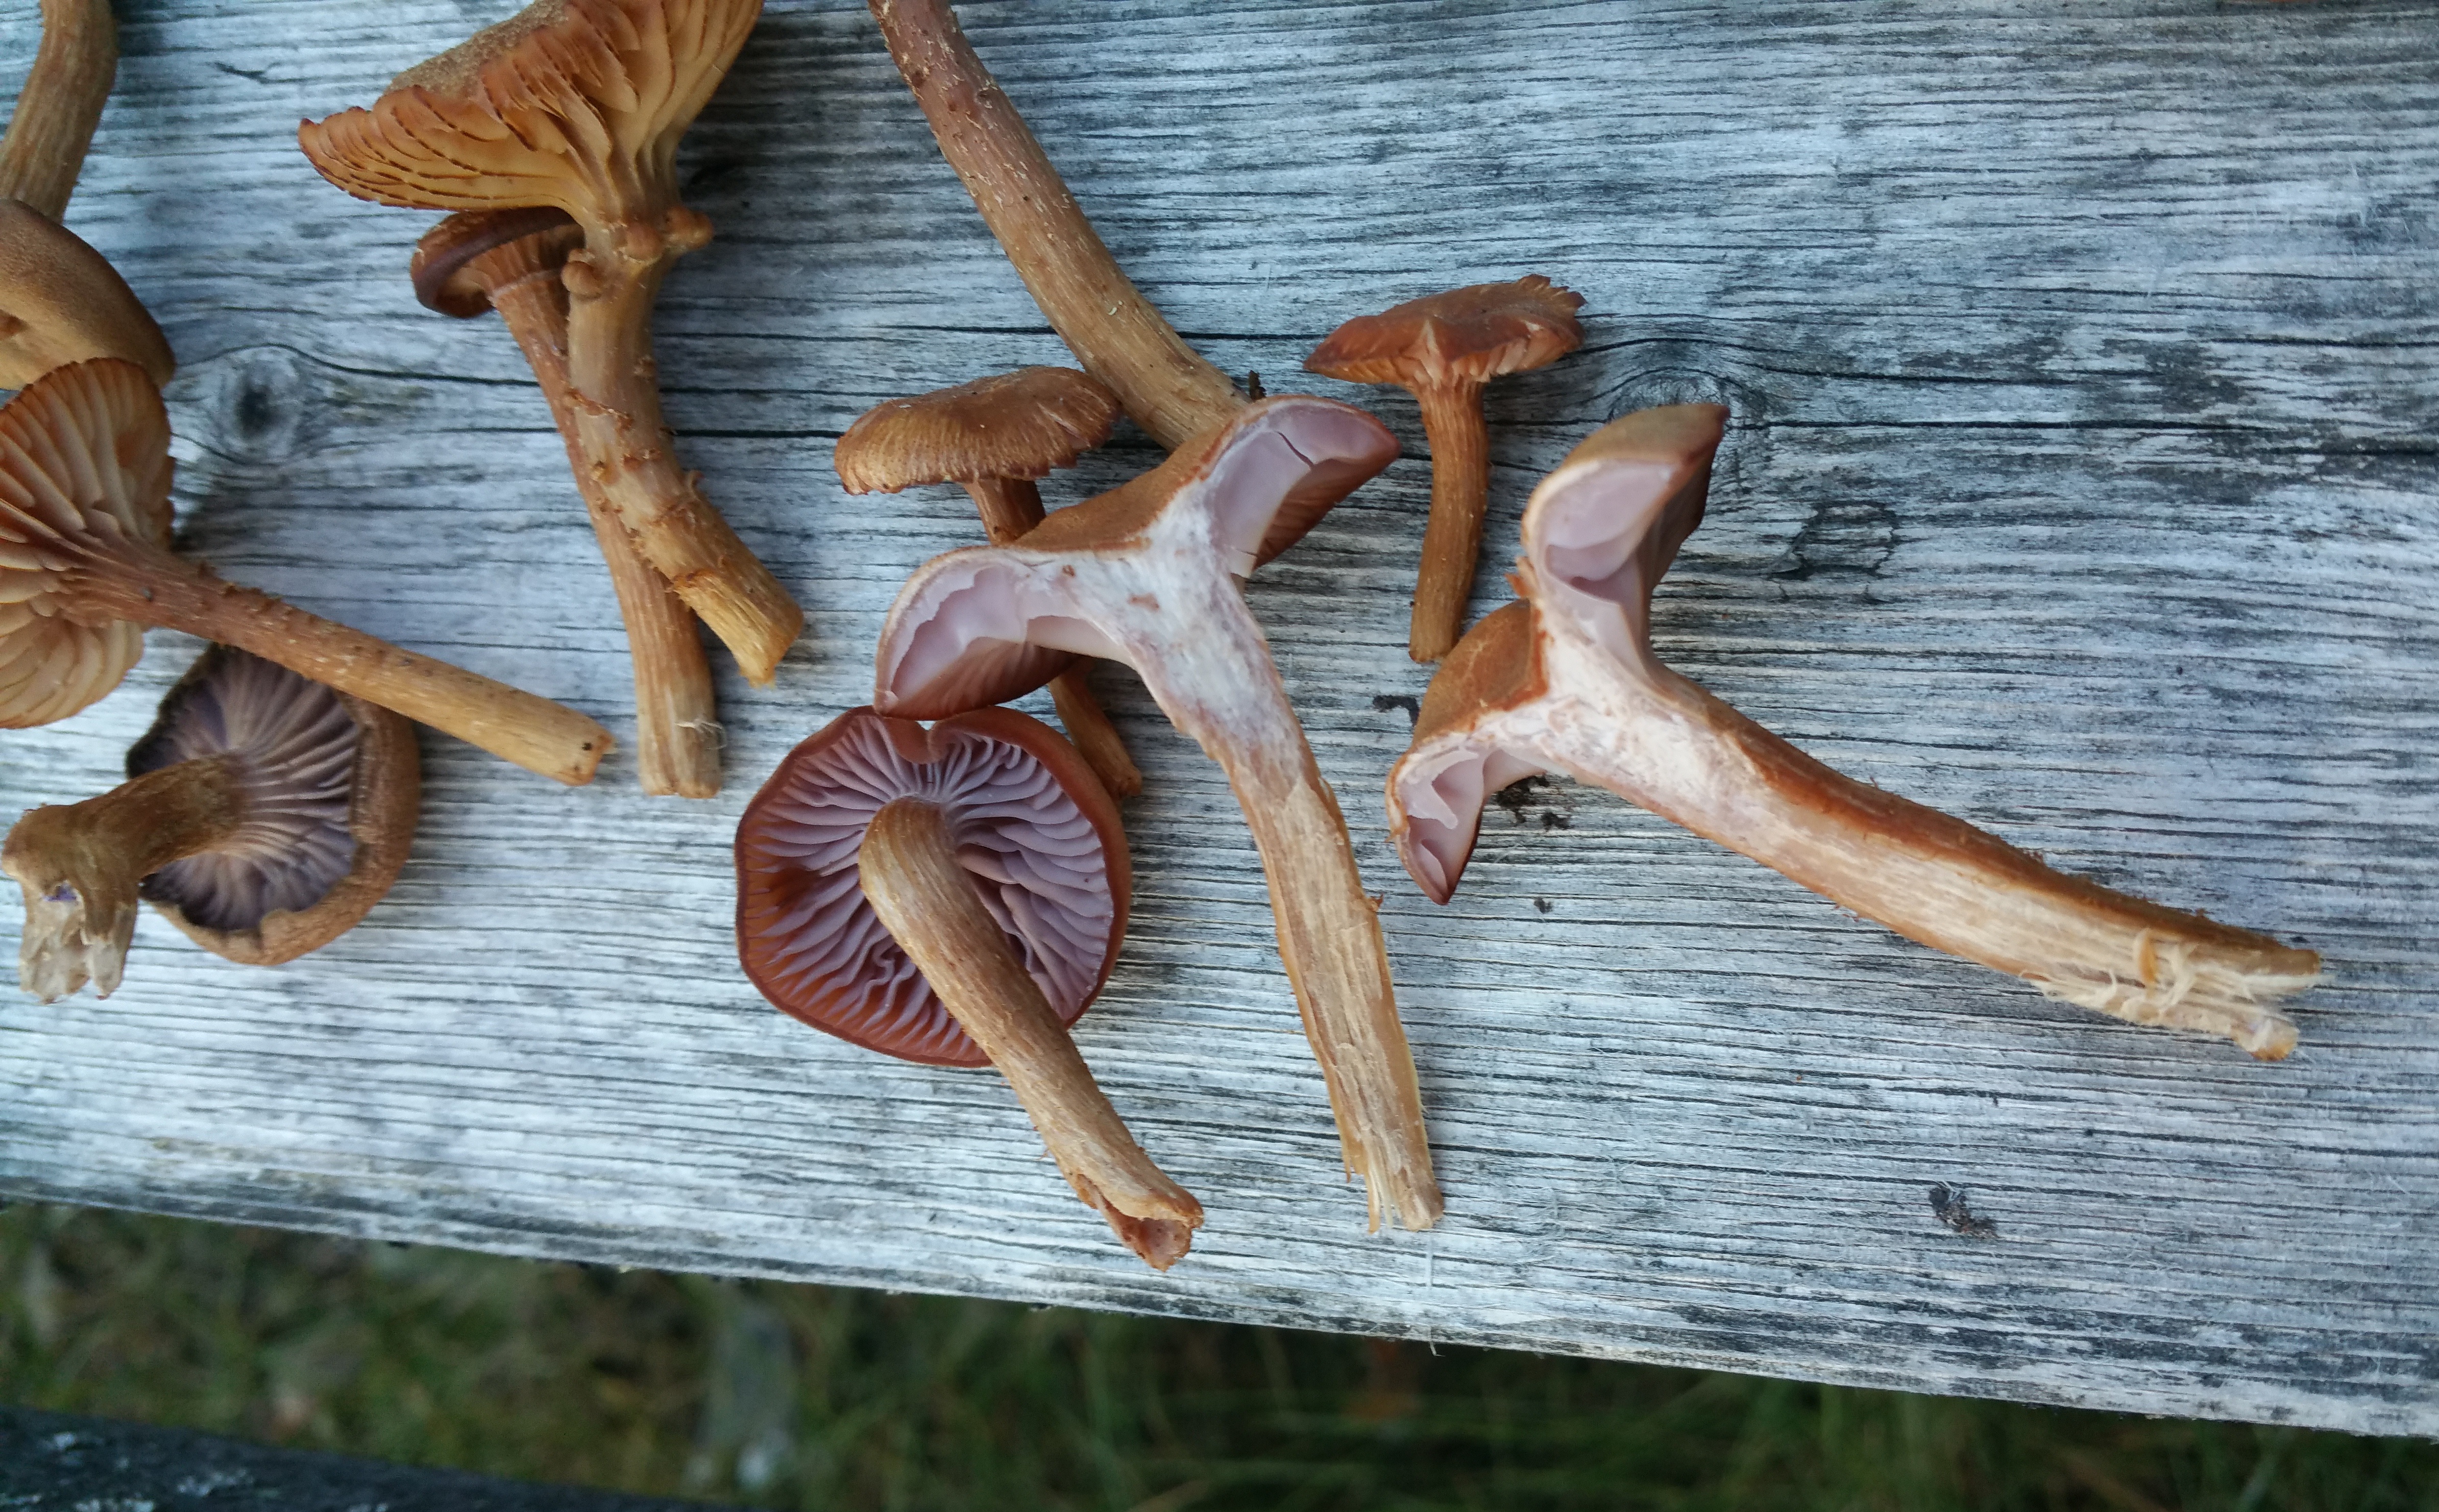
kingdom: Fungi
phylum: Basidiomycota
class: Agaricomycetes
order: Agaricales
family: Hydnangiaceae
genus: Laccaria
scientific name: Laccaria bicolor
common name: Bicoloured deceiver
